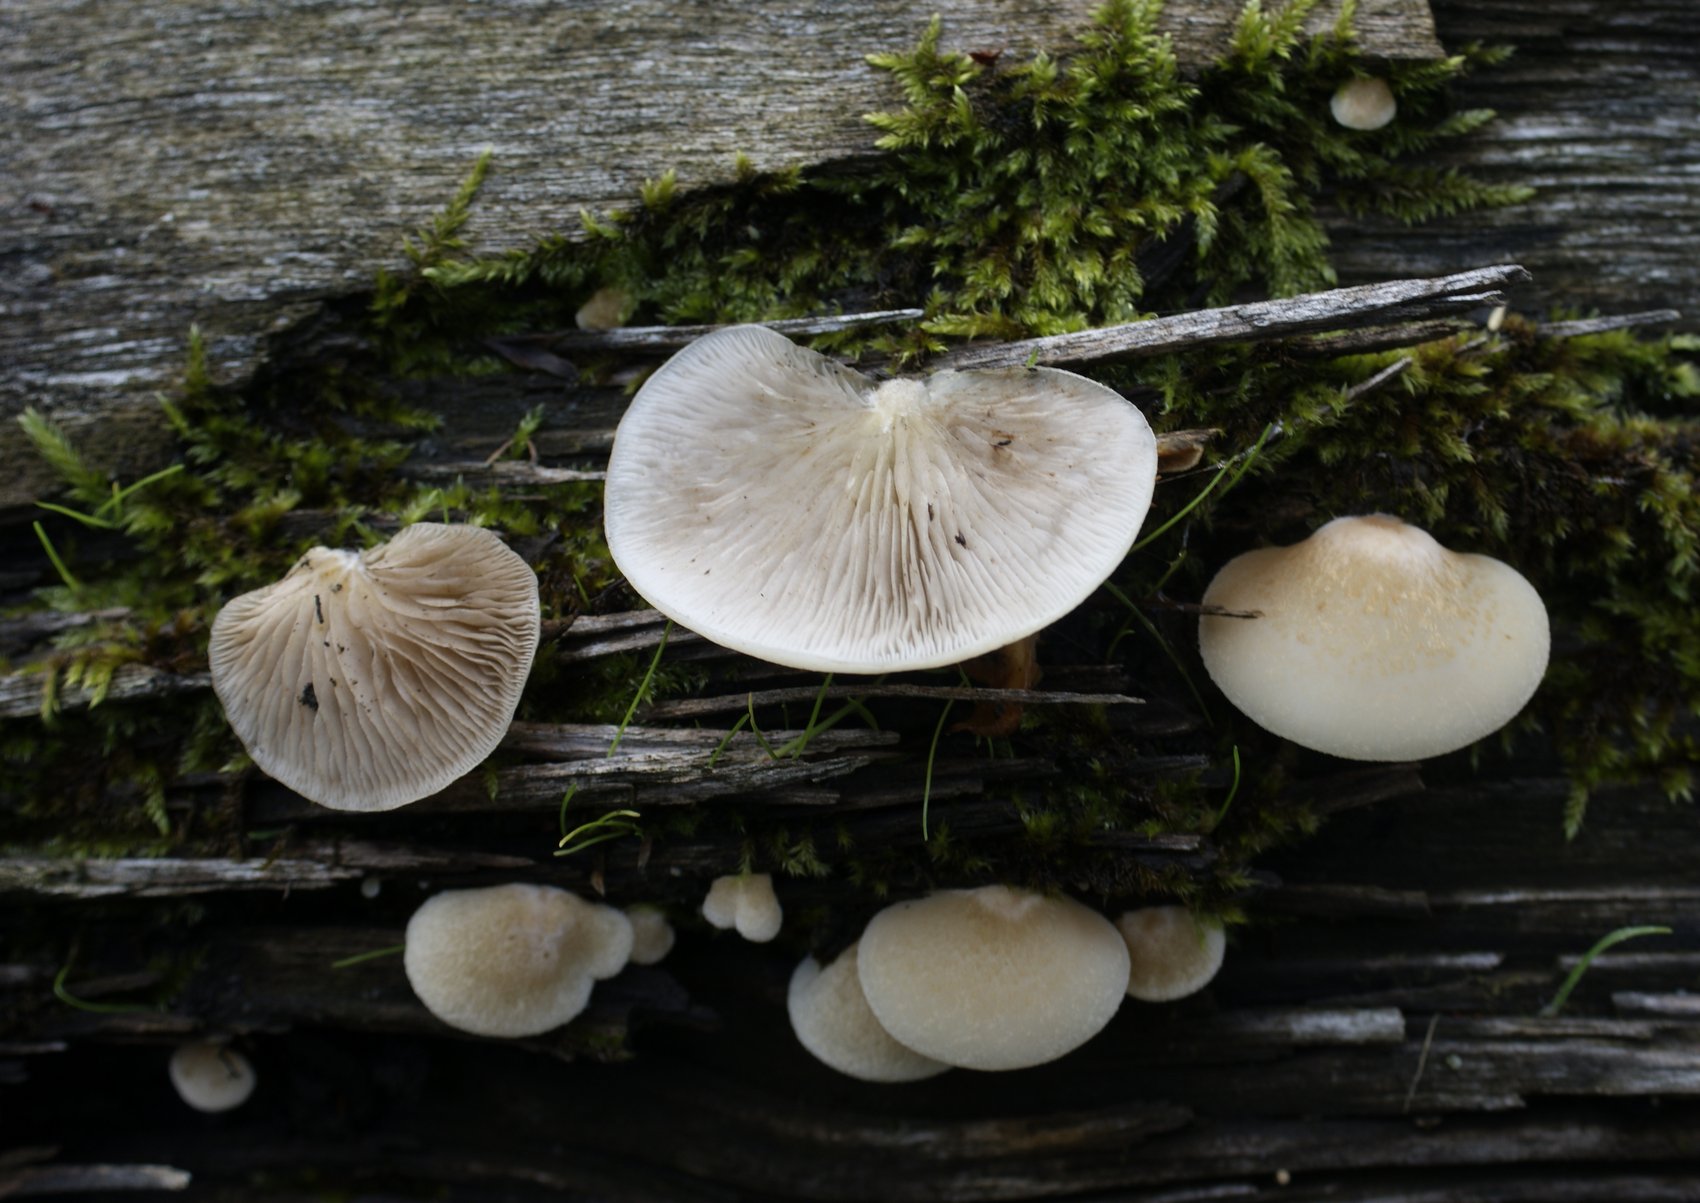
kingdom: Fungi
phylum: Basidiomycota
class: Agaricomycetes
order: Agaricales
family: Crepidotaceae
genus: Crepidotus
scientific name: Crepidotus mollis
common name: blød muslingesvamp
